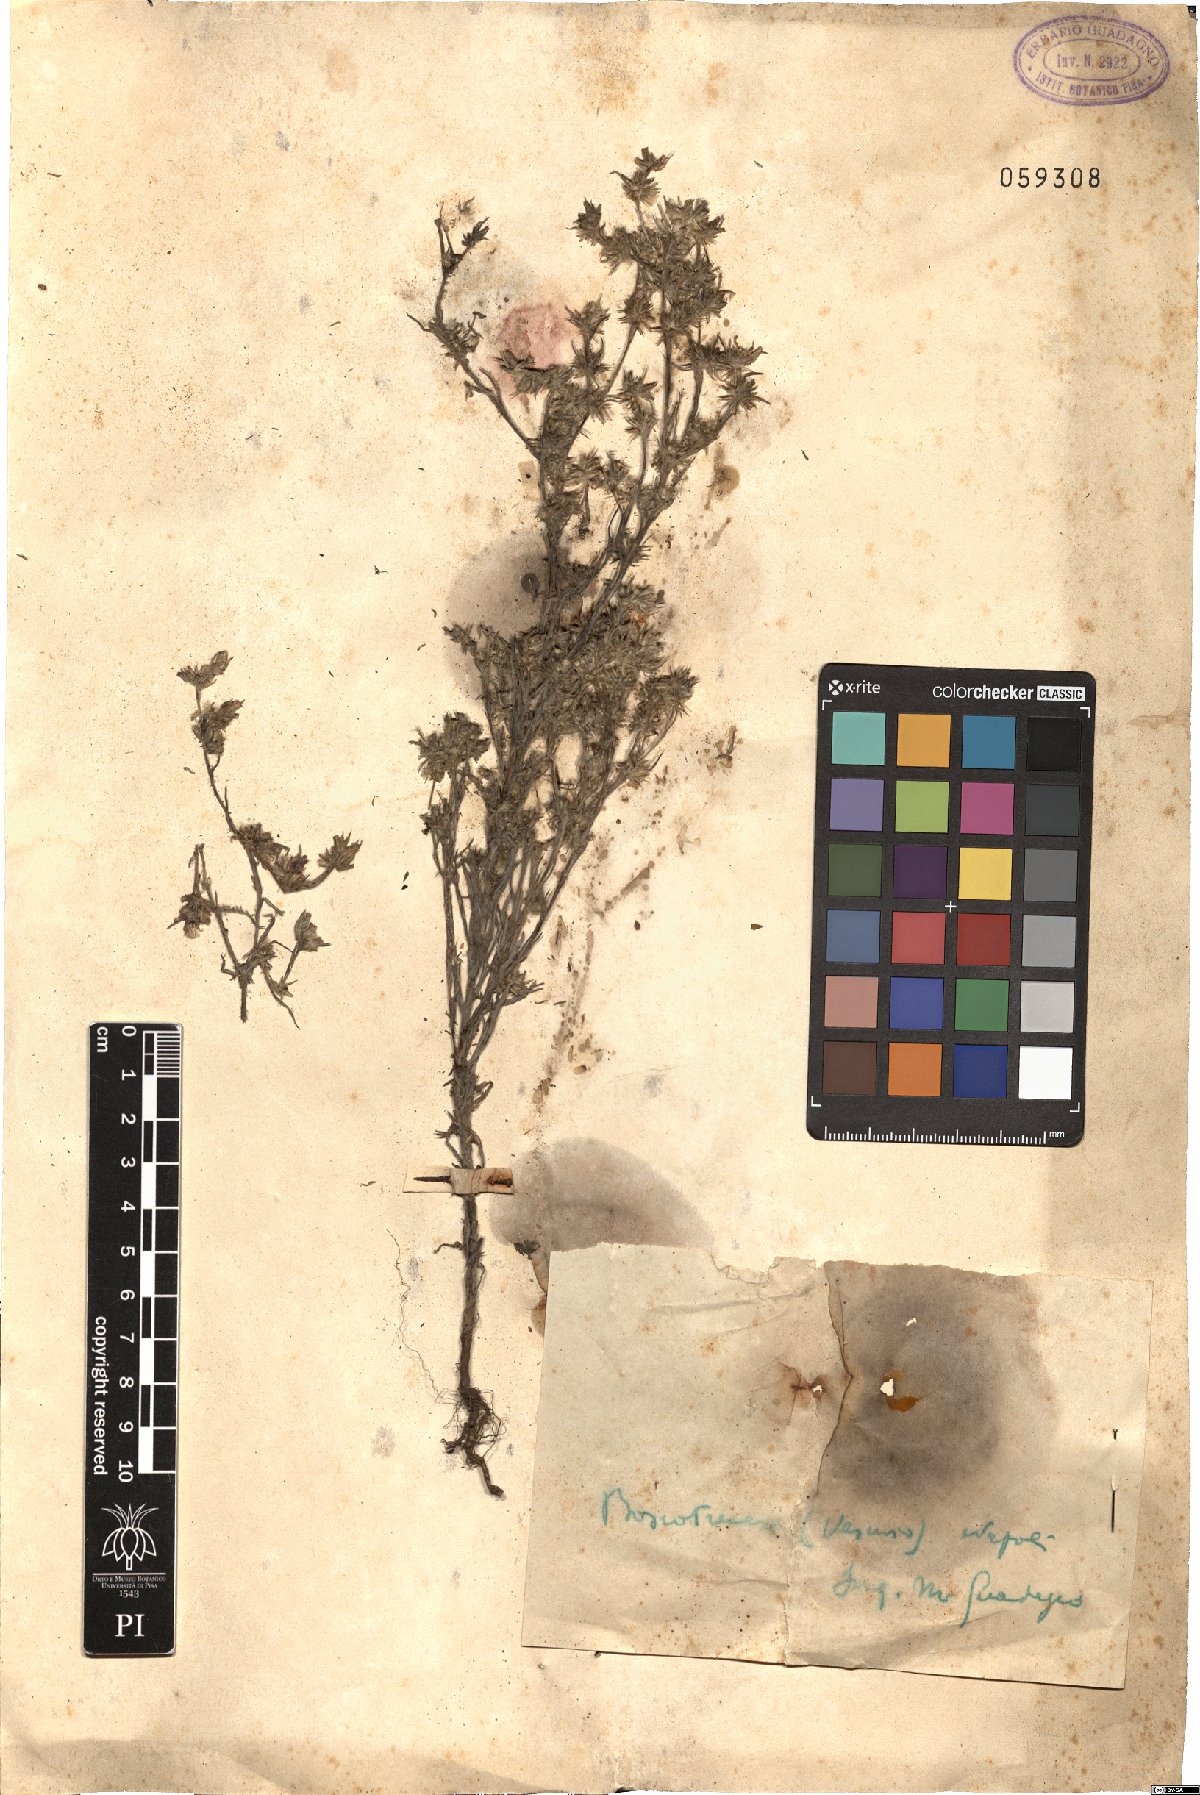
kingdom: Plantae
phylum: Tracheophyta
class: Magnoliopsida
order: Asterales
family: Asteraceae
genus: Logfia
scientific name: Logfia gallica
